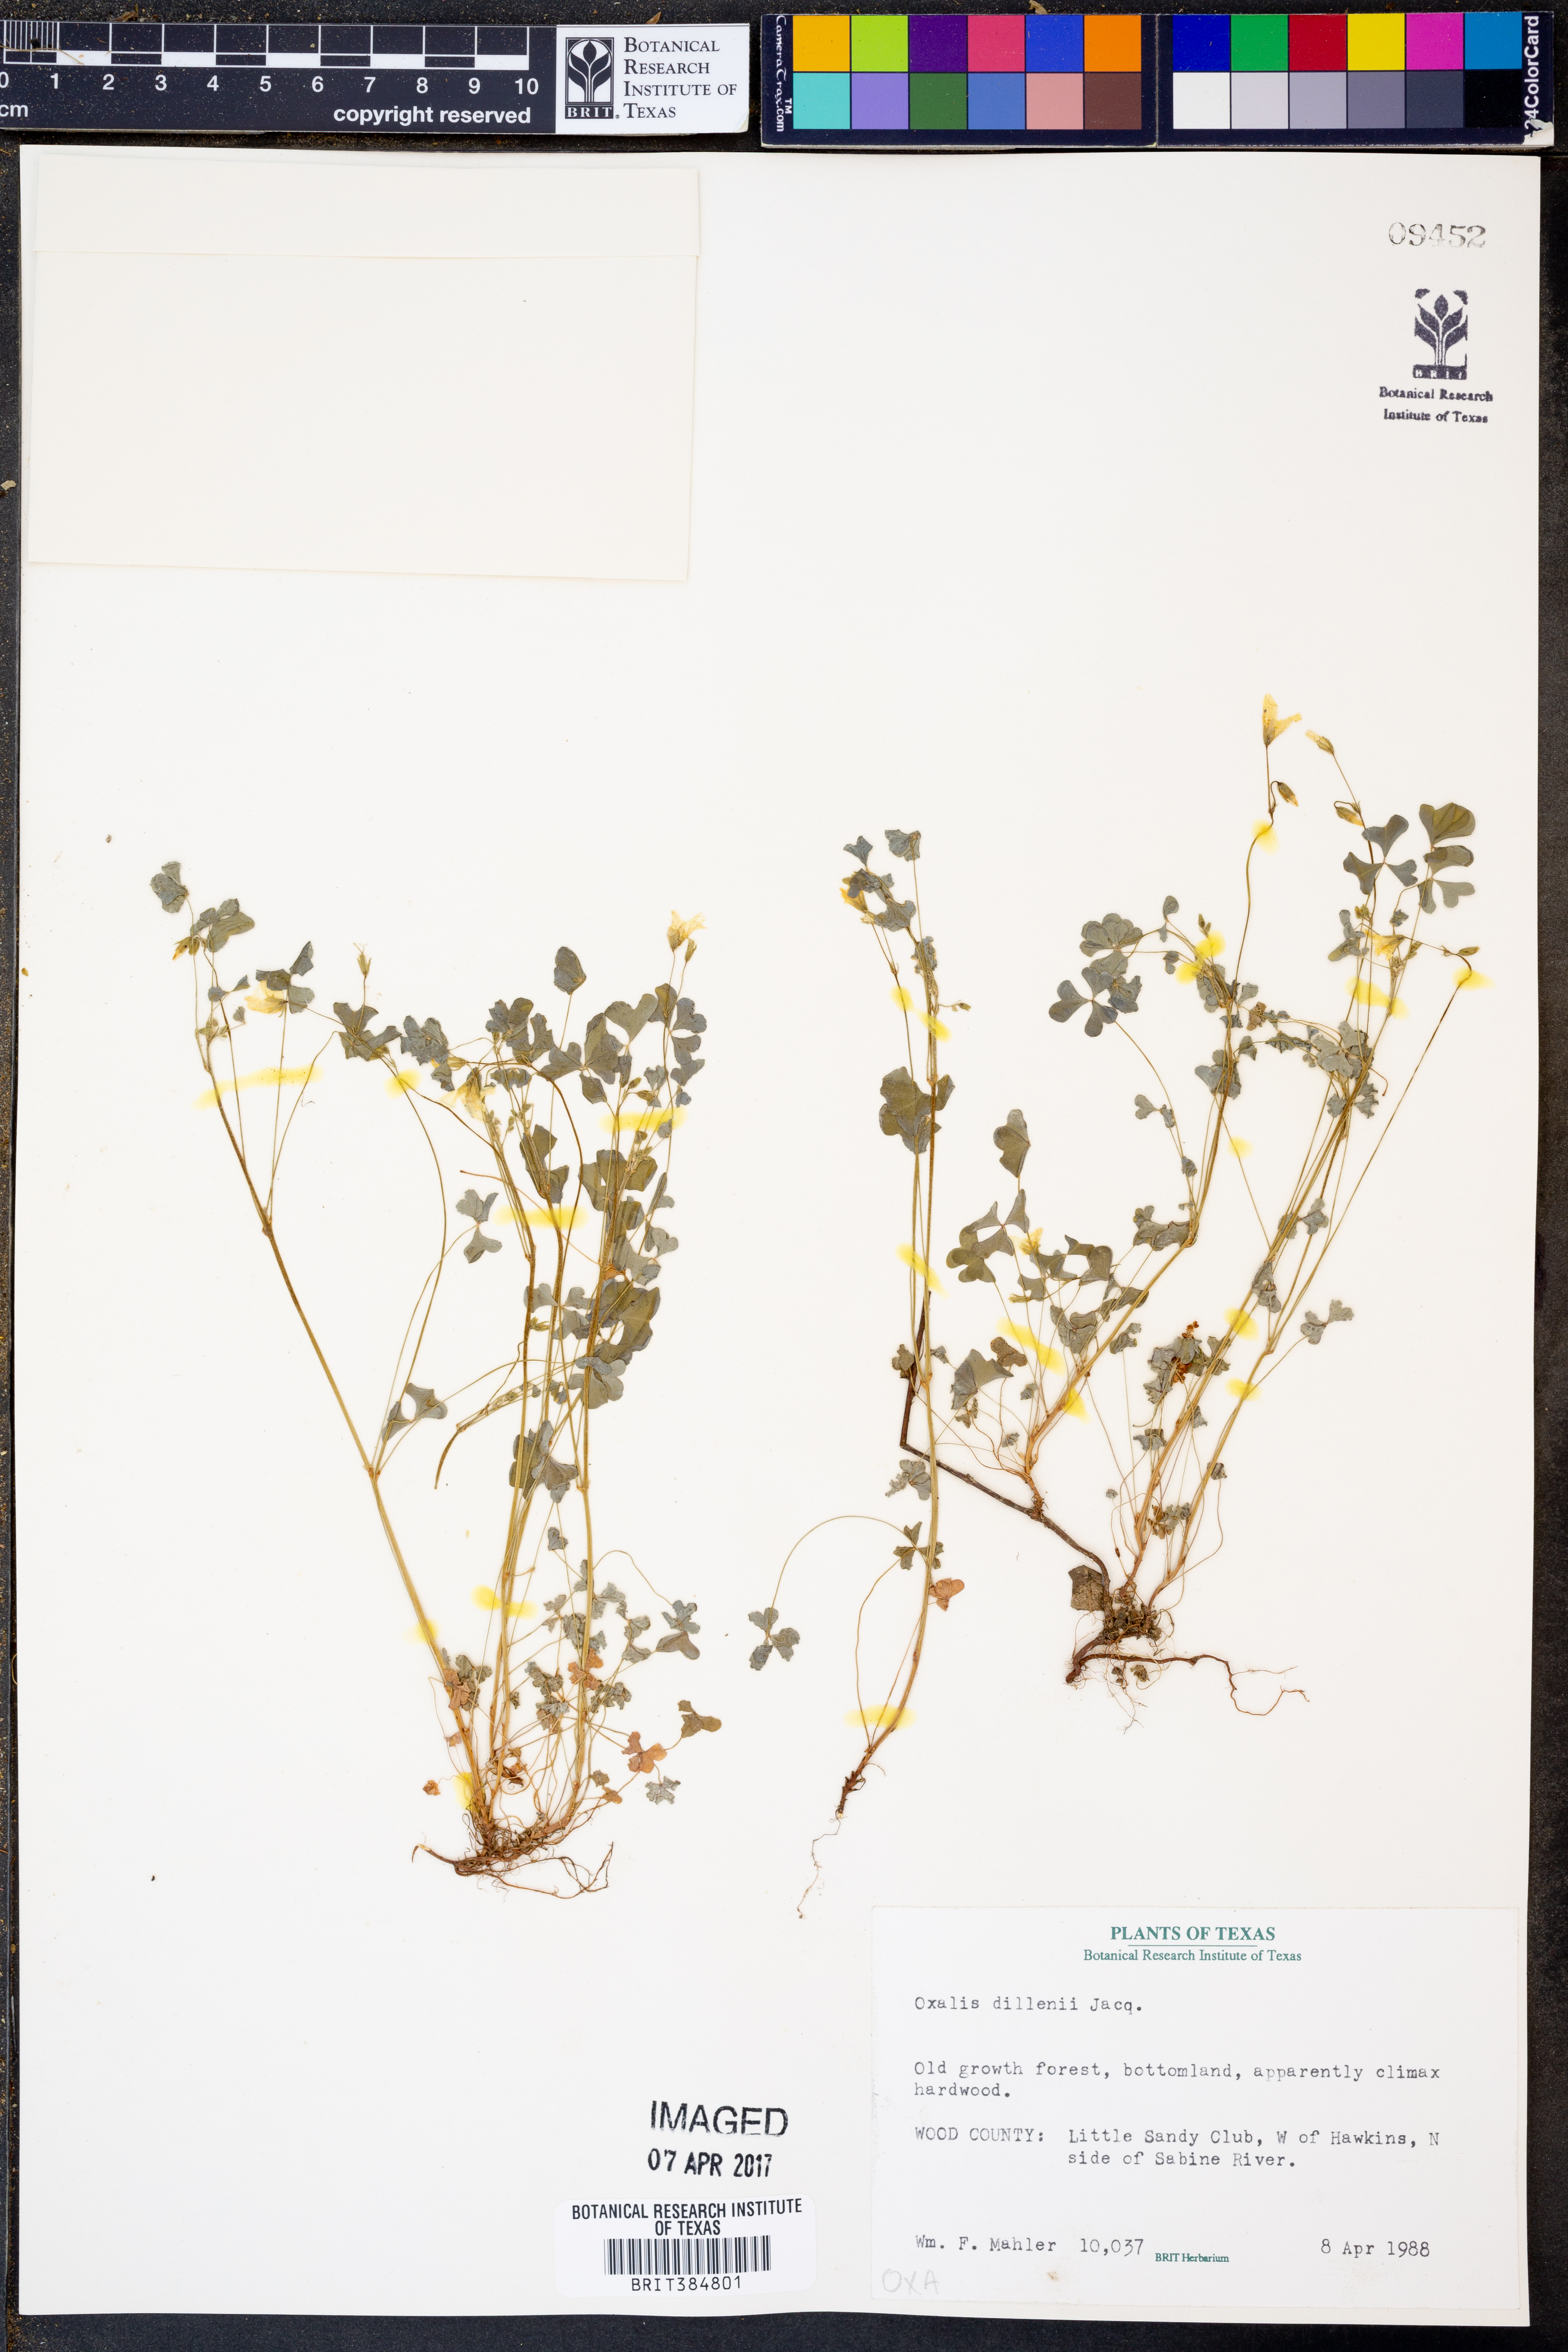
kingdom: Plantae
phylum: Tracheophyta
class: Magnoliopsida
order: Oxalidales
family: Oxalidaceae
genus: Oxalis
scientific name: Oxalis dillenii
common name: Sussex yellow-sorrel
